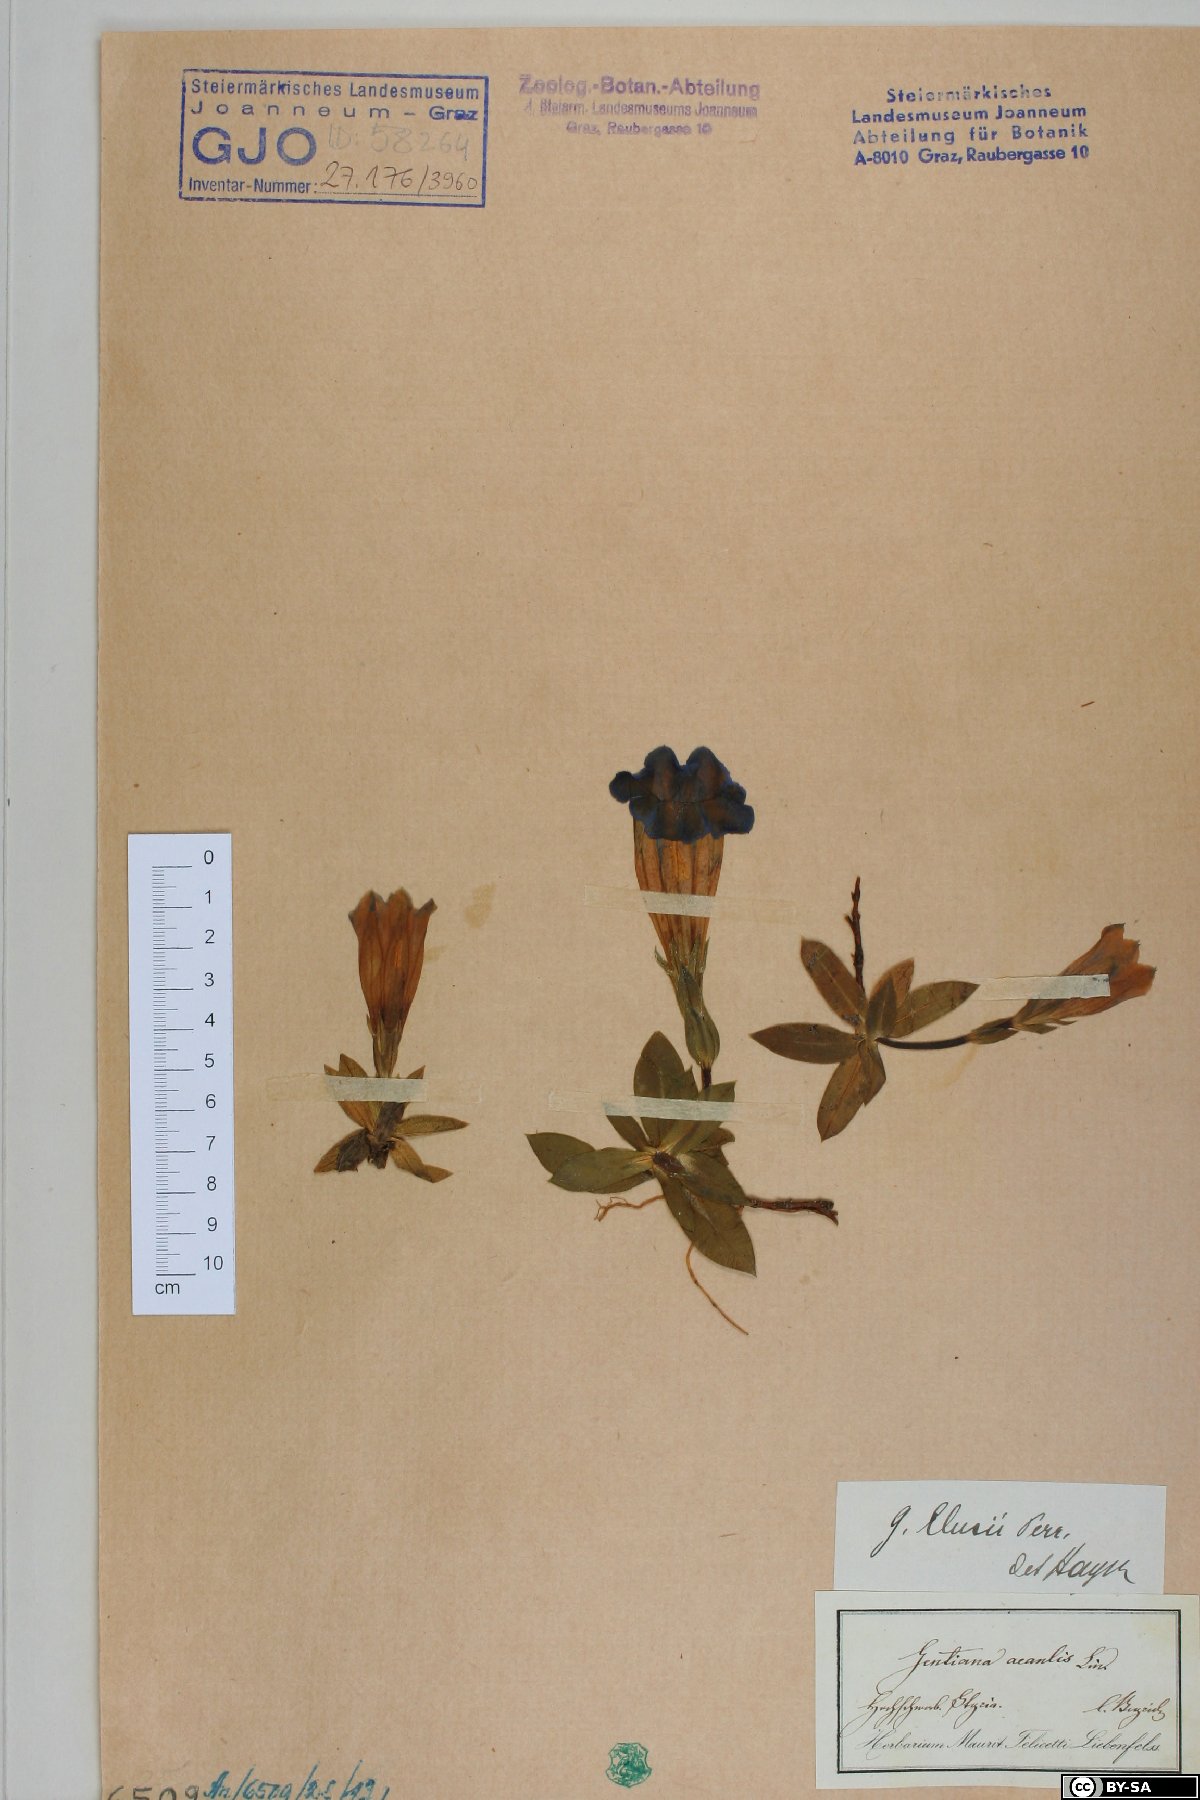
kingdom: Plantae
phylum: Tracheophyta
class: Magnoliopsida
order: Gentianales
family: Gentianaceae
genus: Gentiana
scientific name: Gentiana clusii
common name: Trumpet gentian
